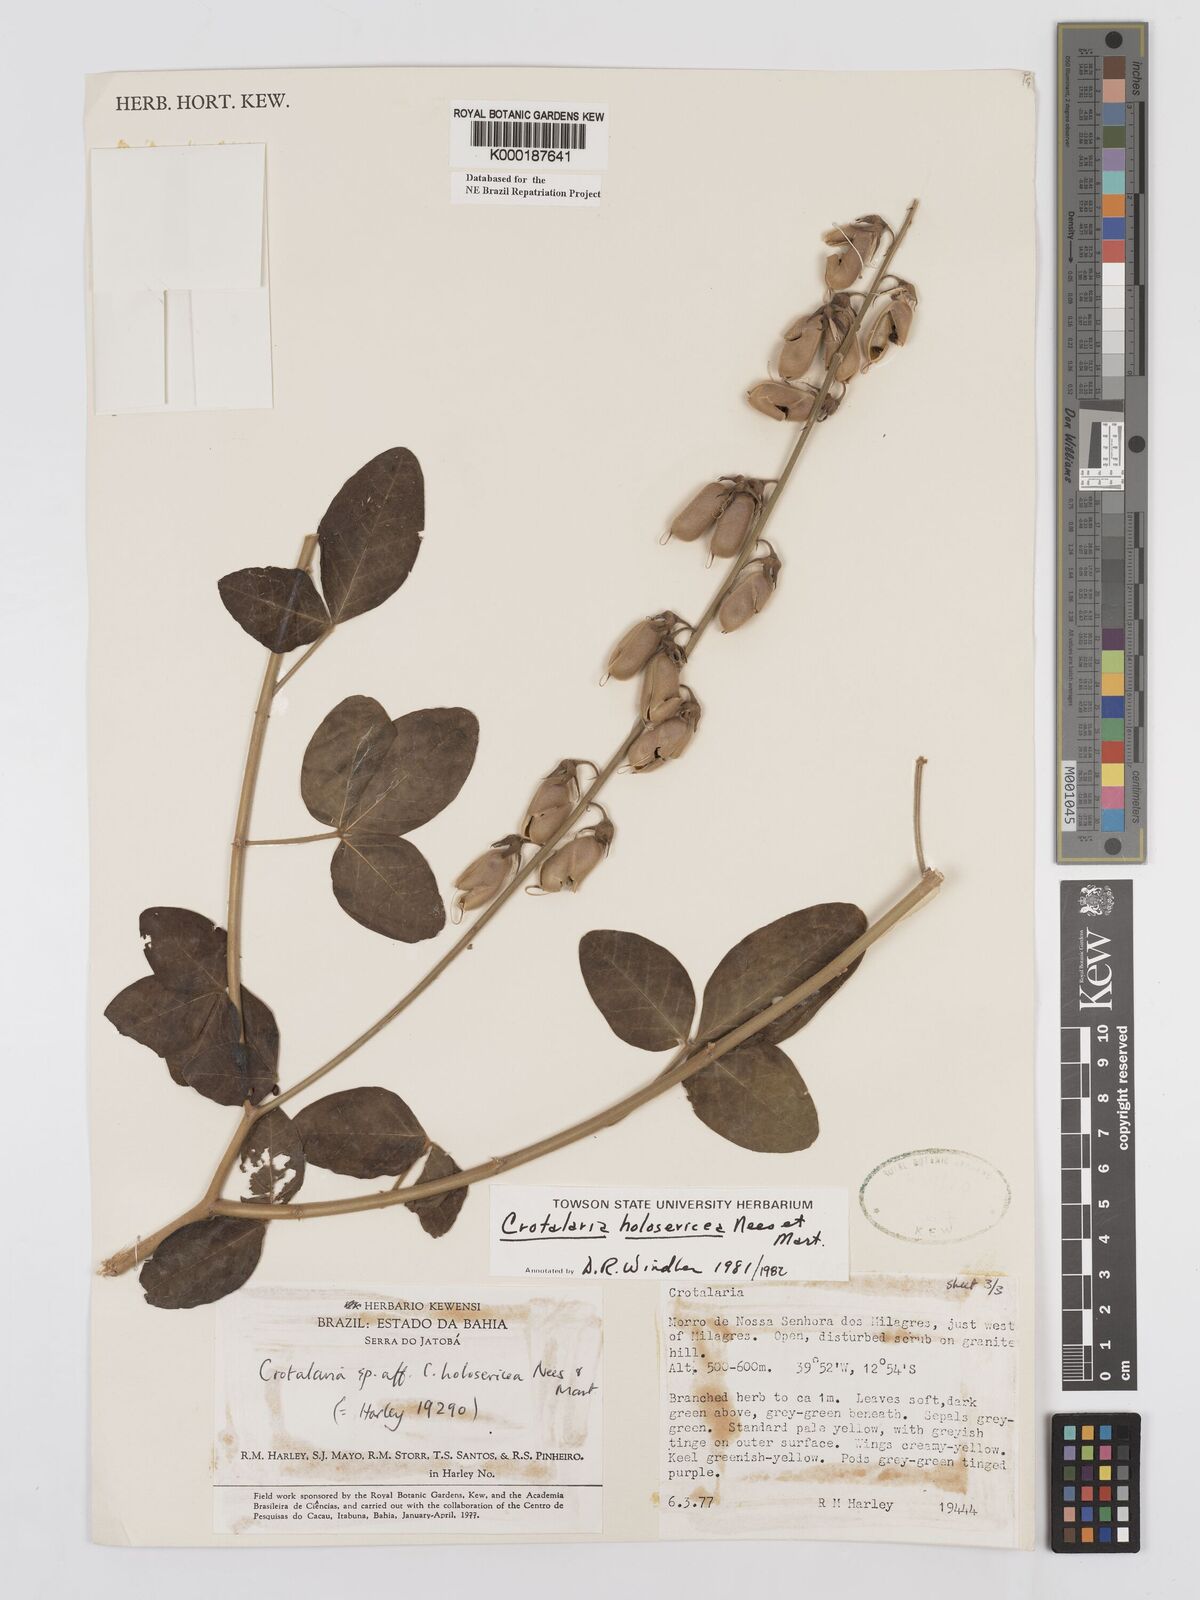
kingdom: Plantae
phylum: Tracheophyta
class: Magnoliopsida
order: Fabales
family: Fabaceae
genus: Crotalaria
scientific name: Crotalaria holosericea
